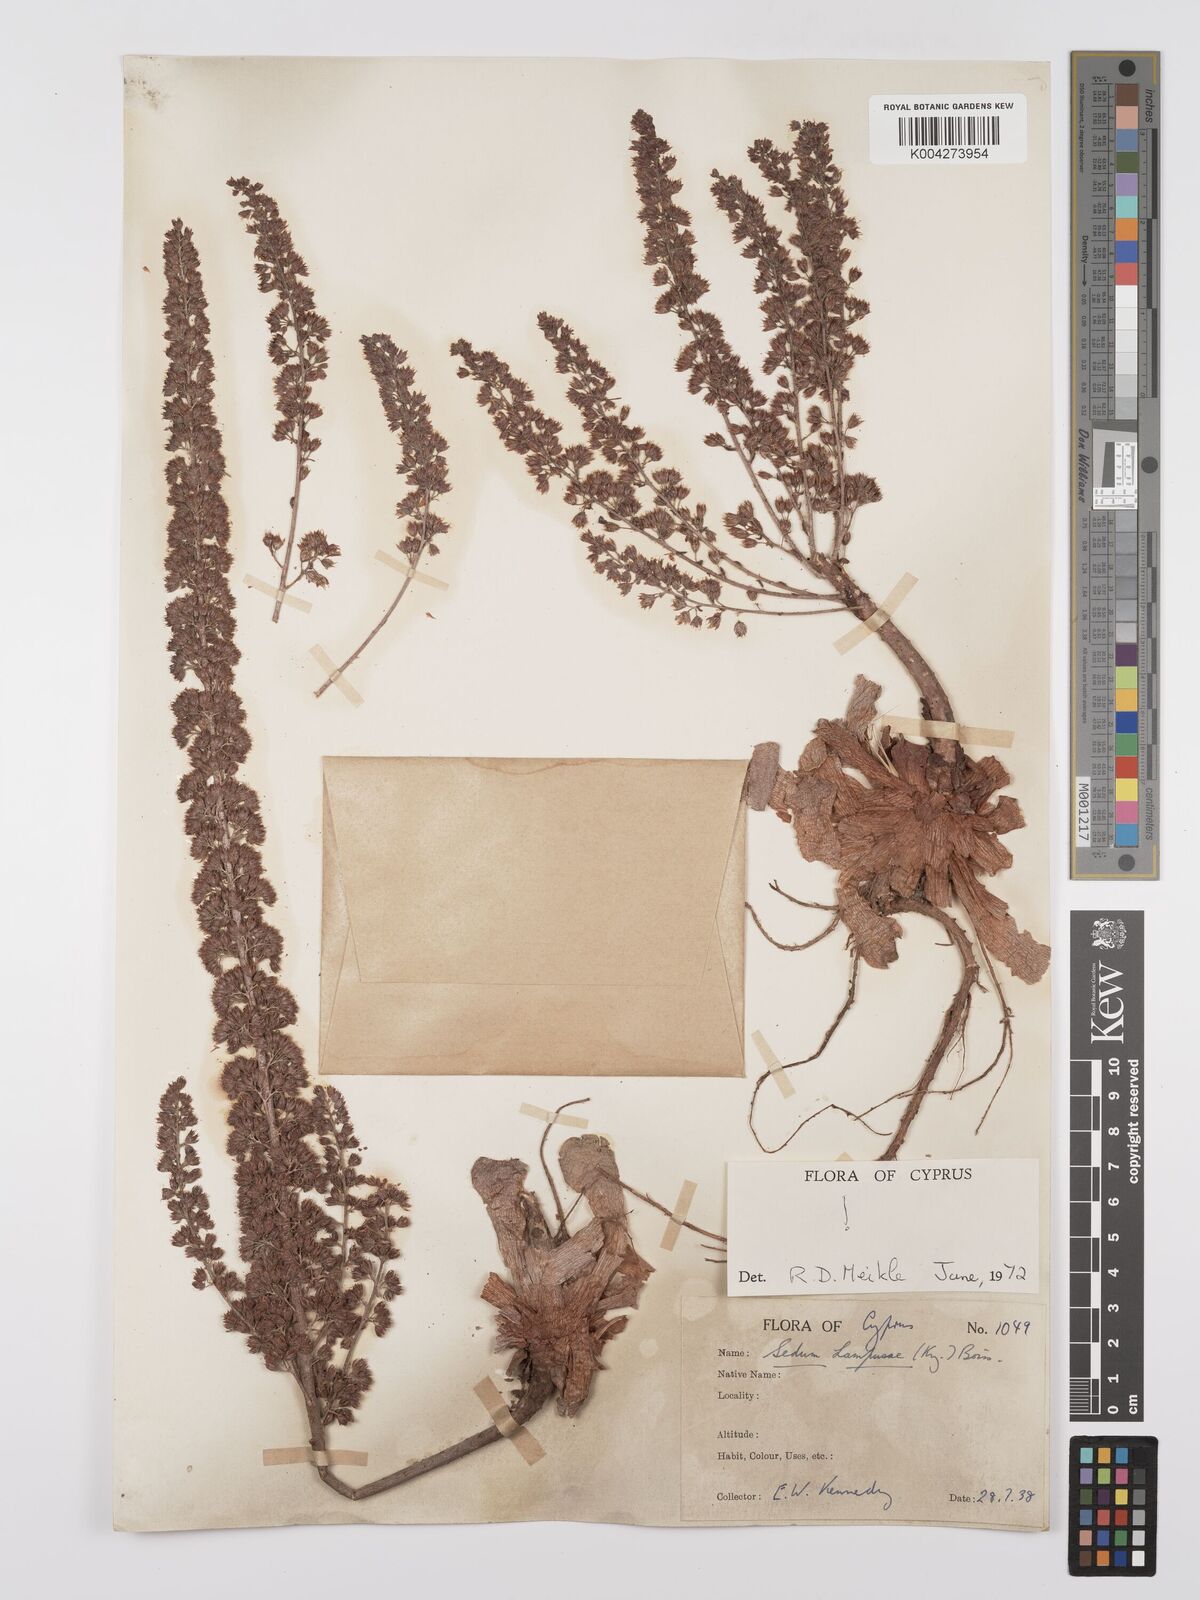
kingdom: Plantae
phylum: Tracheophyta
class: Magnoliopsida
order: Saxifragales
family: Crassulaceae
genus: Sedum
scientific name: Sedum lampusae
